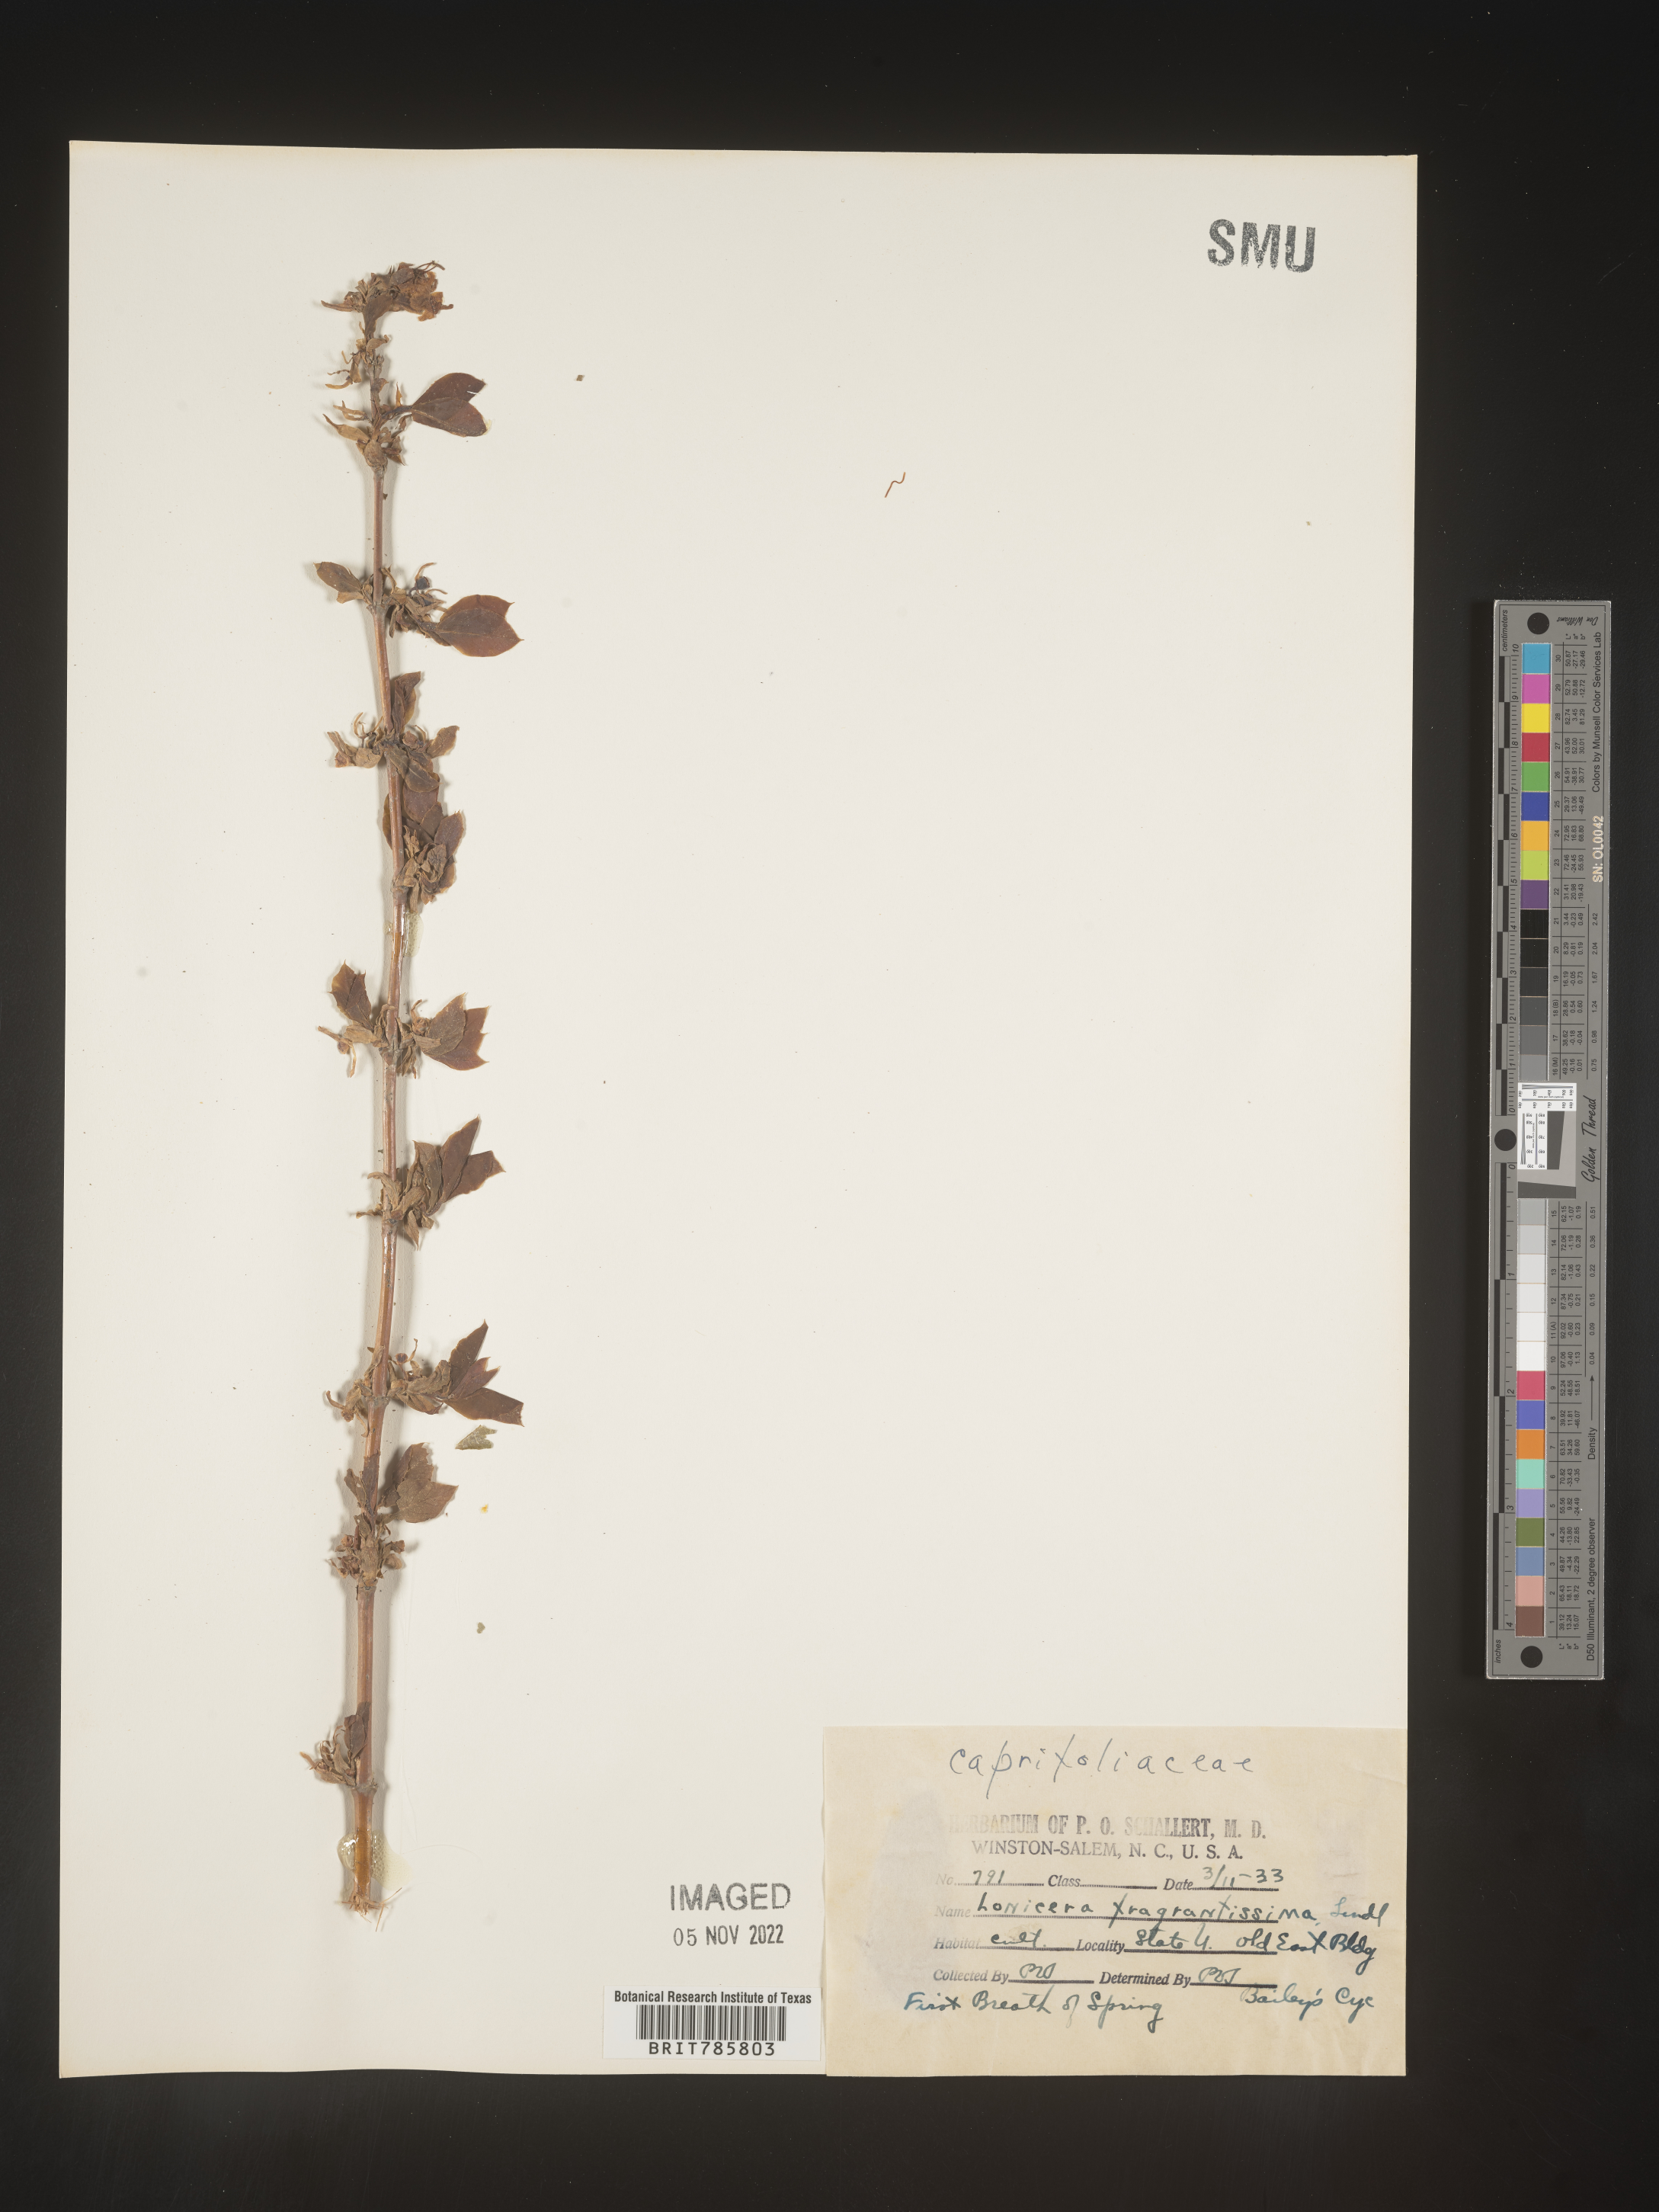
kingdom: Plantae
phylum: Tracheophyta
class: Magnoliopsida
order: Dipsacales
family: Caprifoliaceae
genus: Lonicera
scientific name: Lonicera
